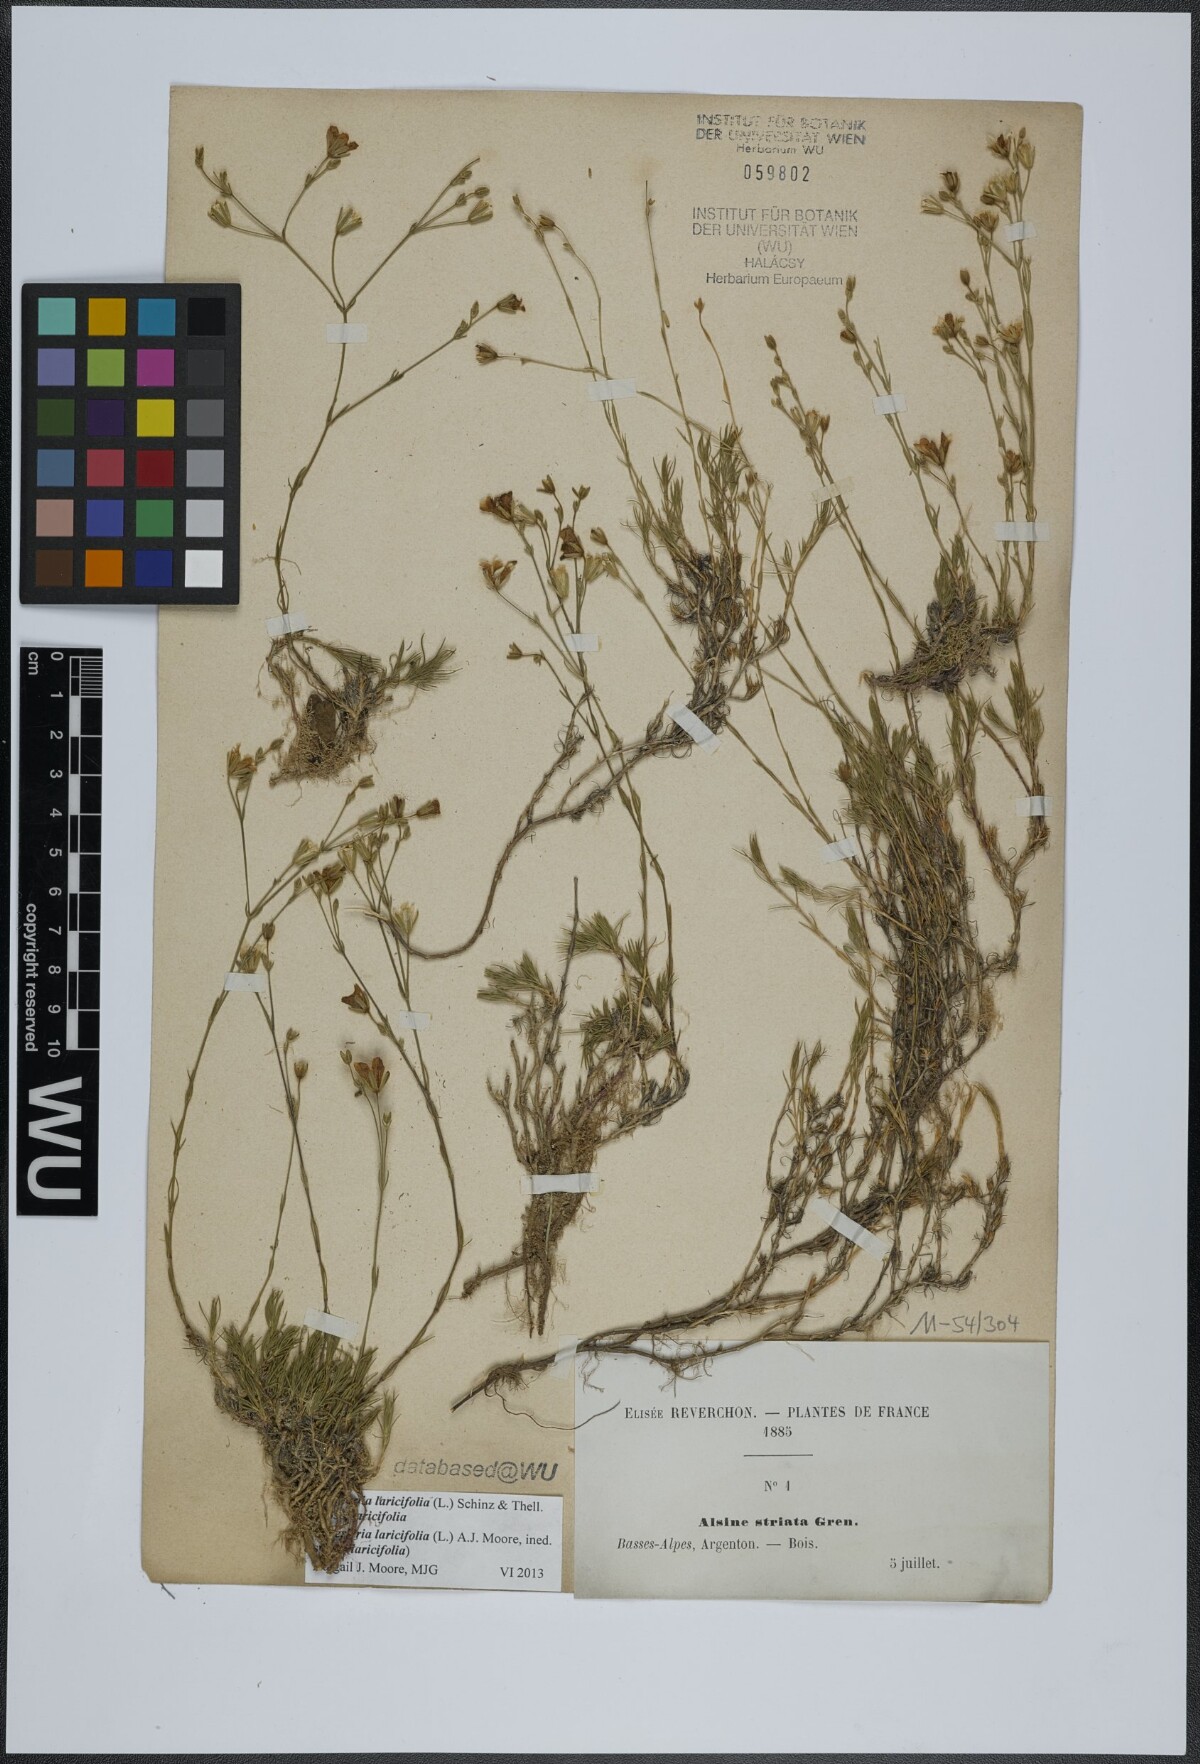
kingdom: Plantae
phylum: Tracheophyta
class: Magnoliopsida
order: Caryophyllales
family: Caryophyllaceae
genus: Cherleria
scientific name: Cherleria laricifolia
